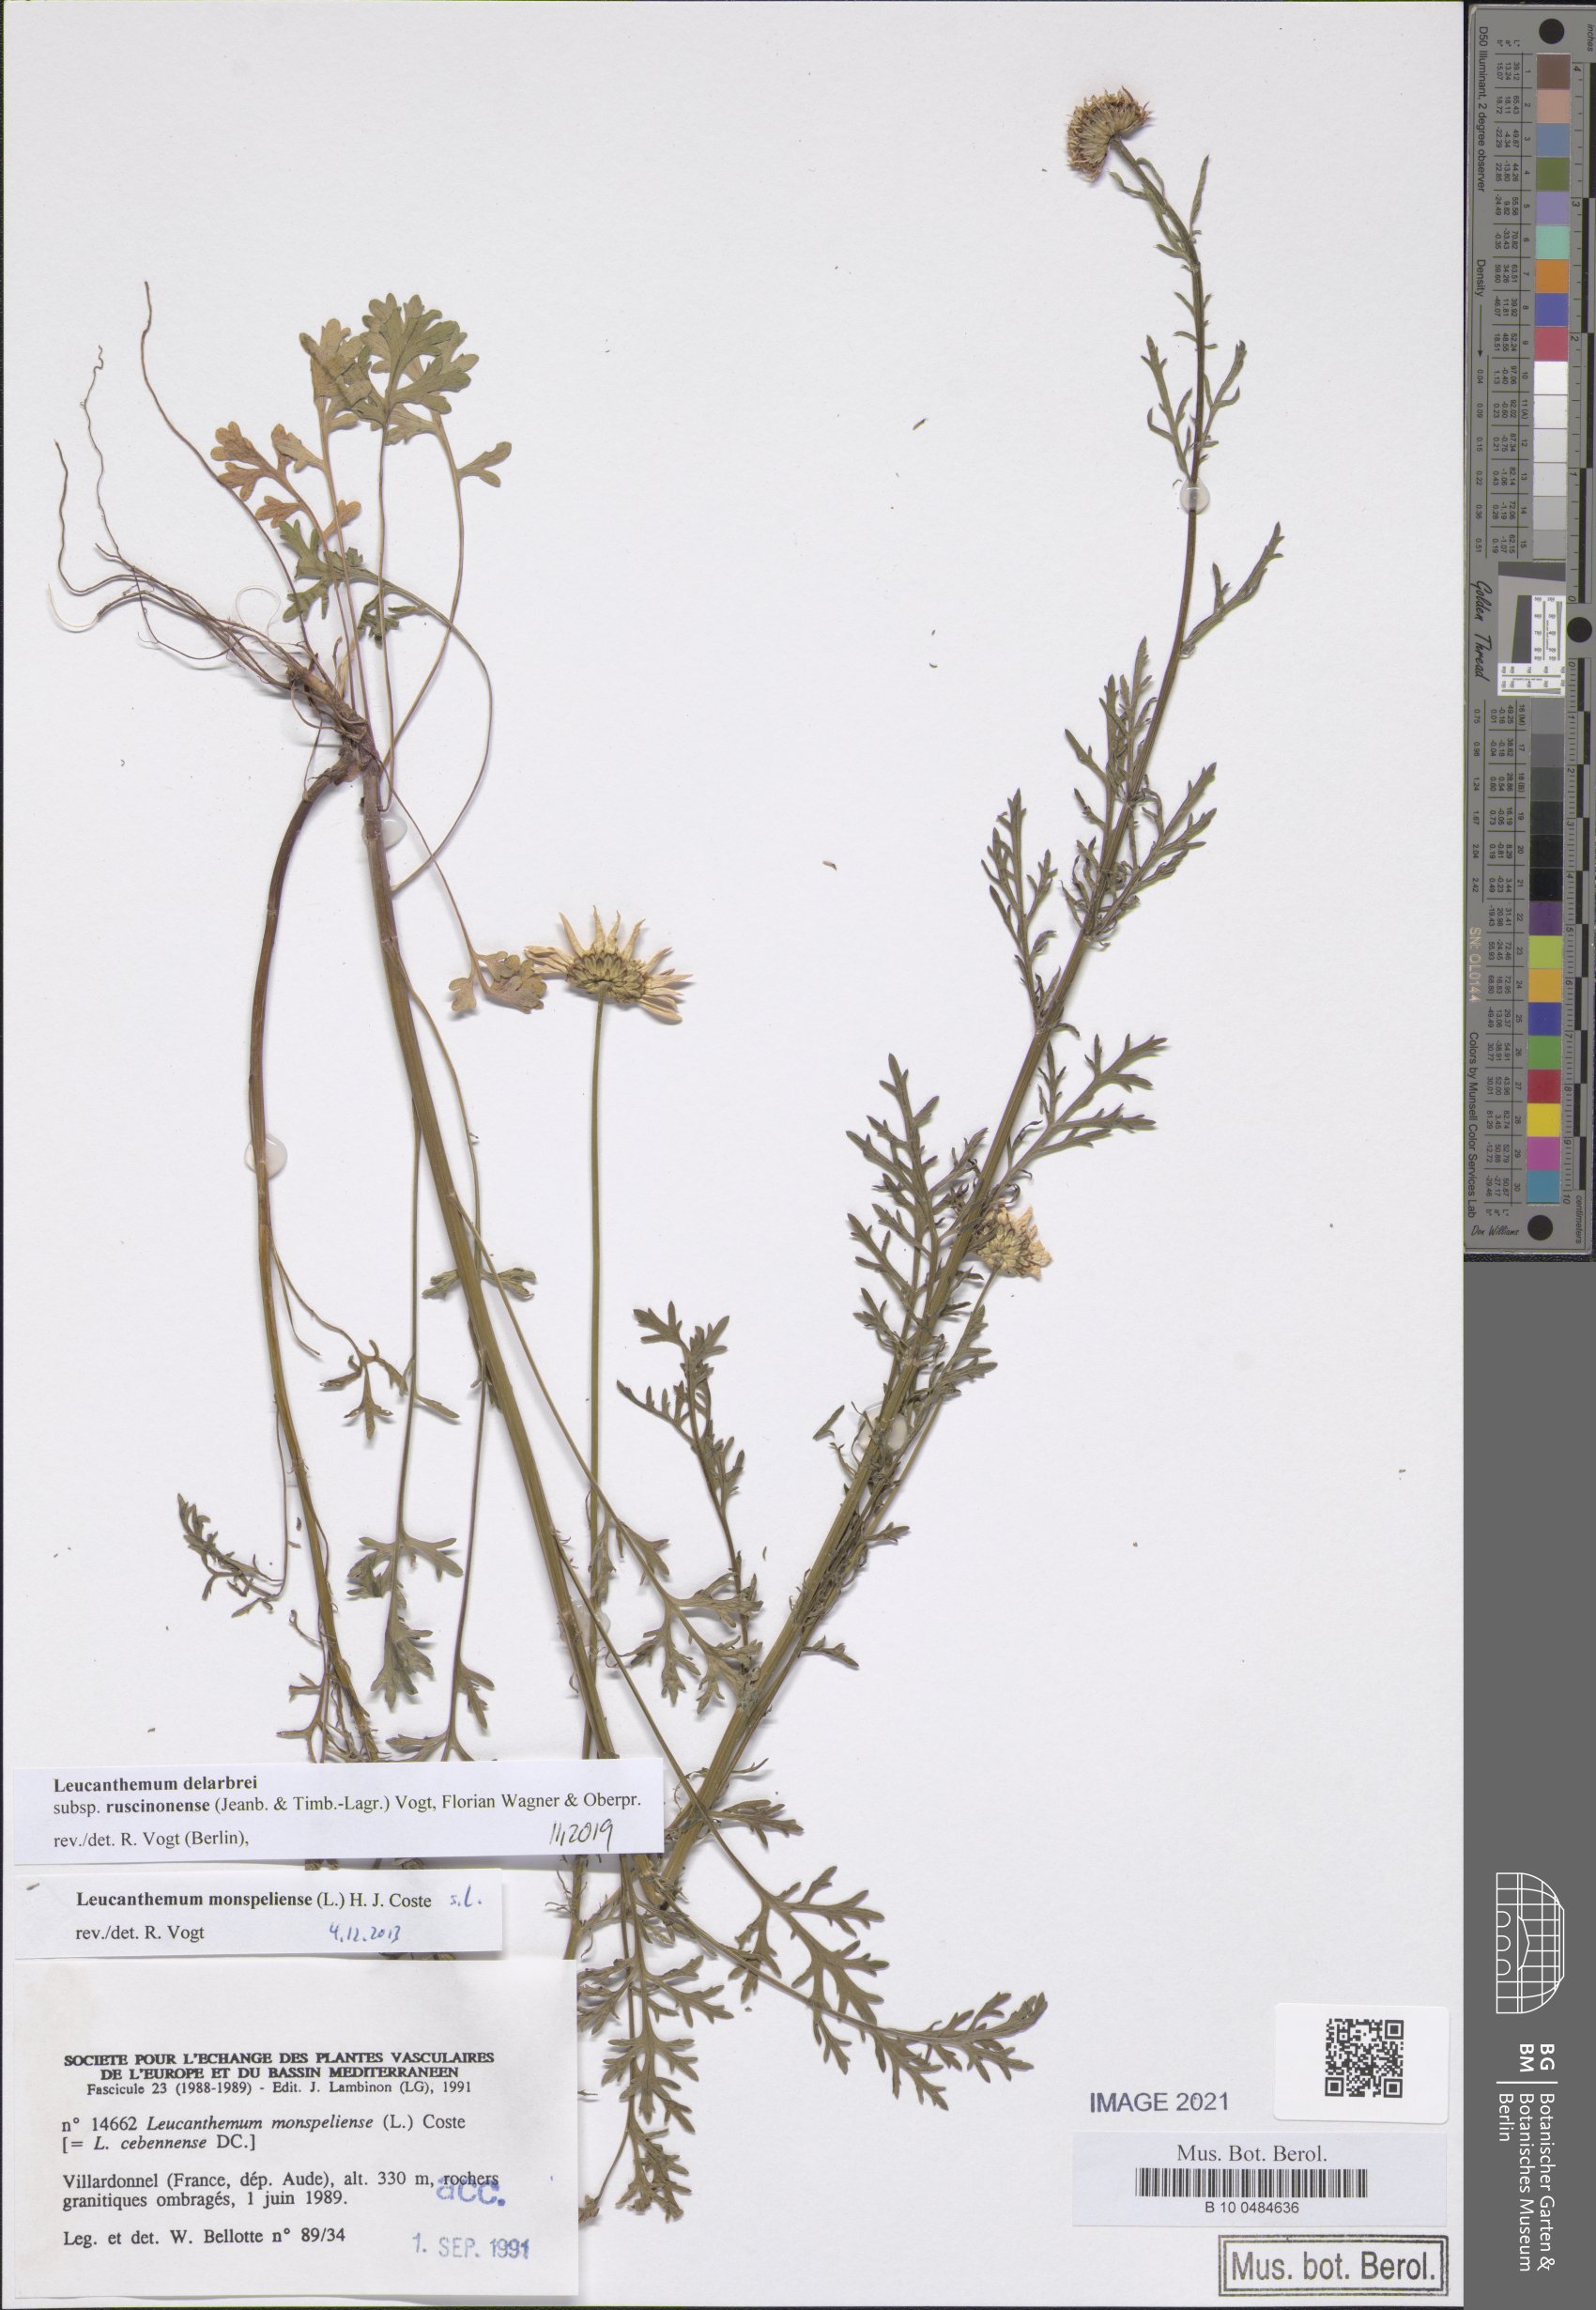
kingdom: Plantae
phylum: Tracheophyta
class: Magnoliopsida
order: Asterales
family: Asteraceae
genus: Leucanthemum
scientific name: Leucanthemum delarbrei
